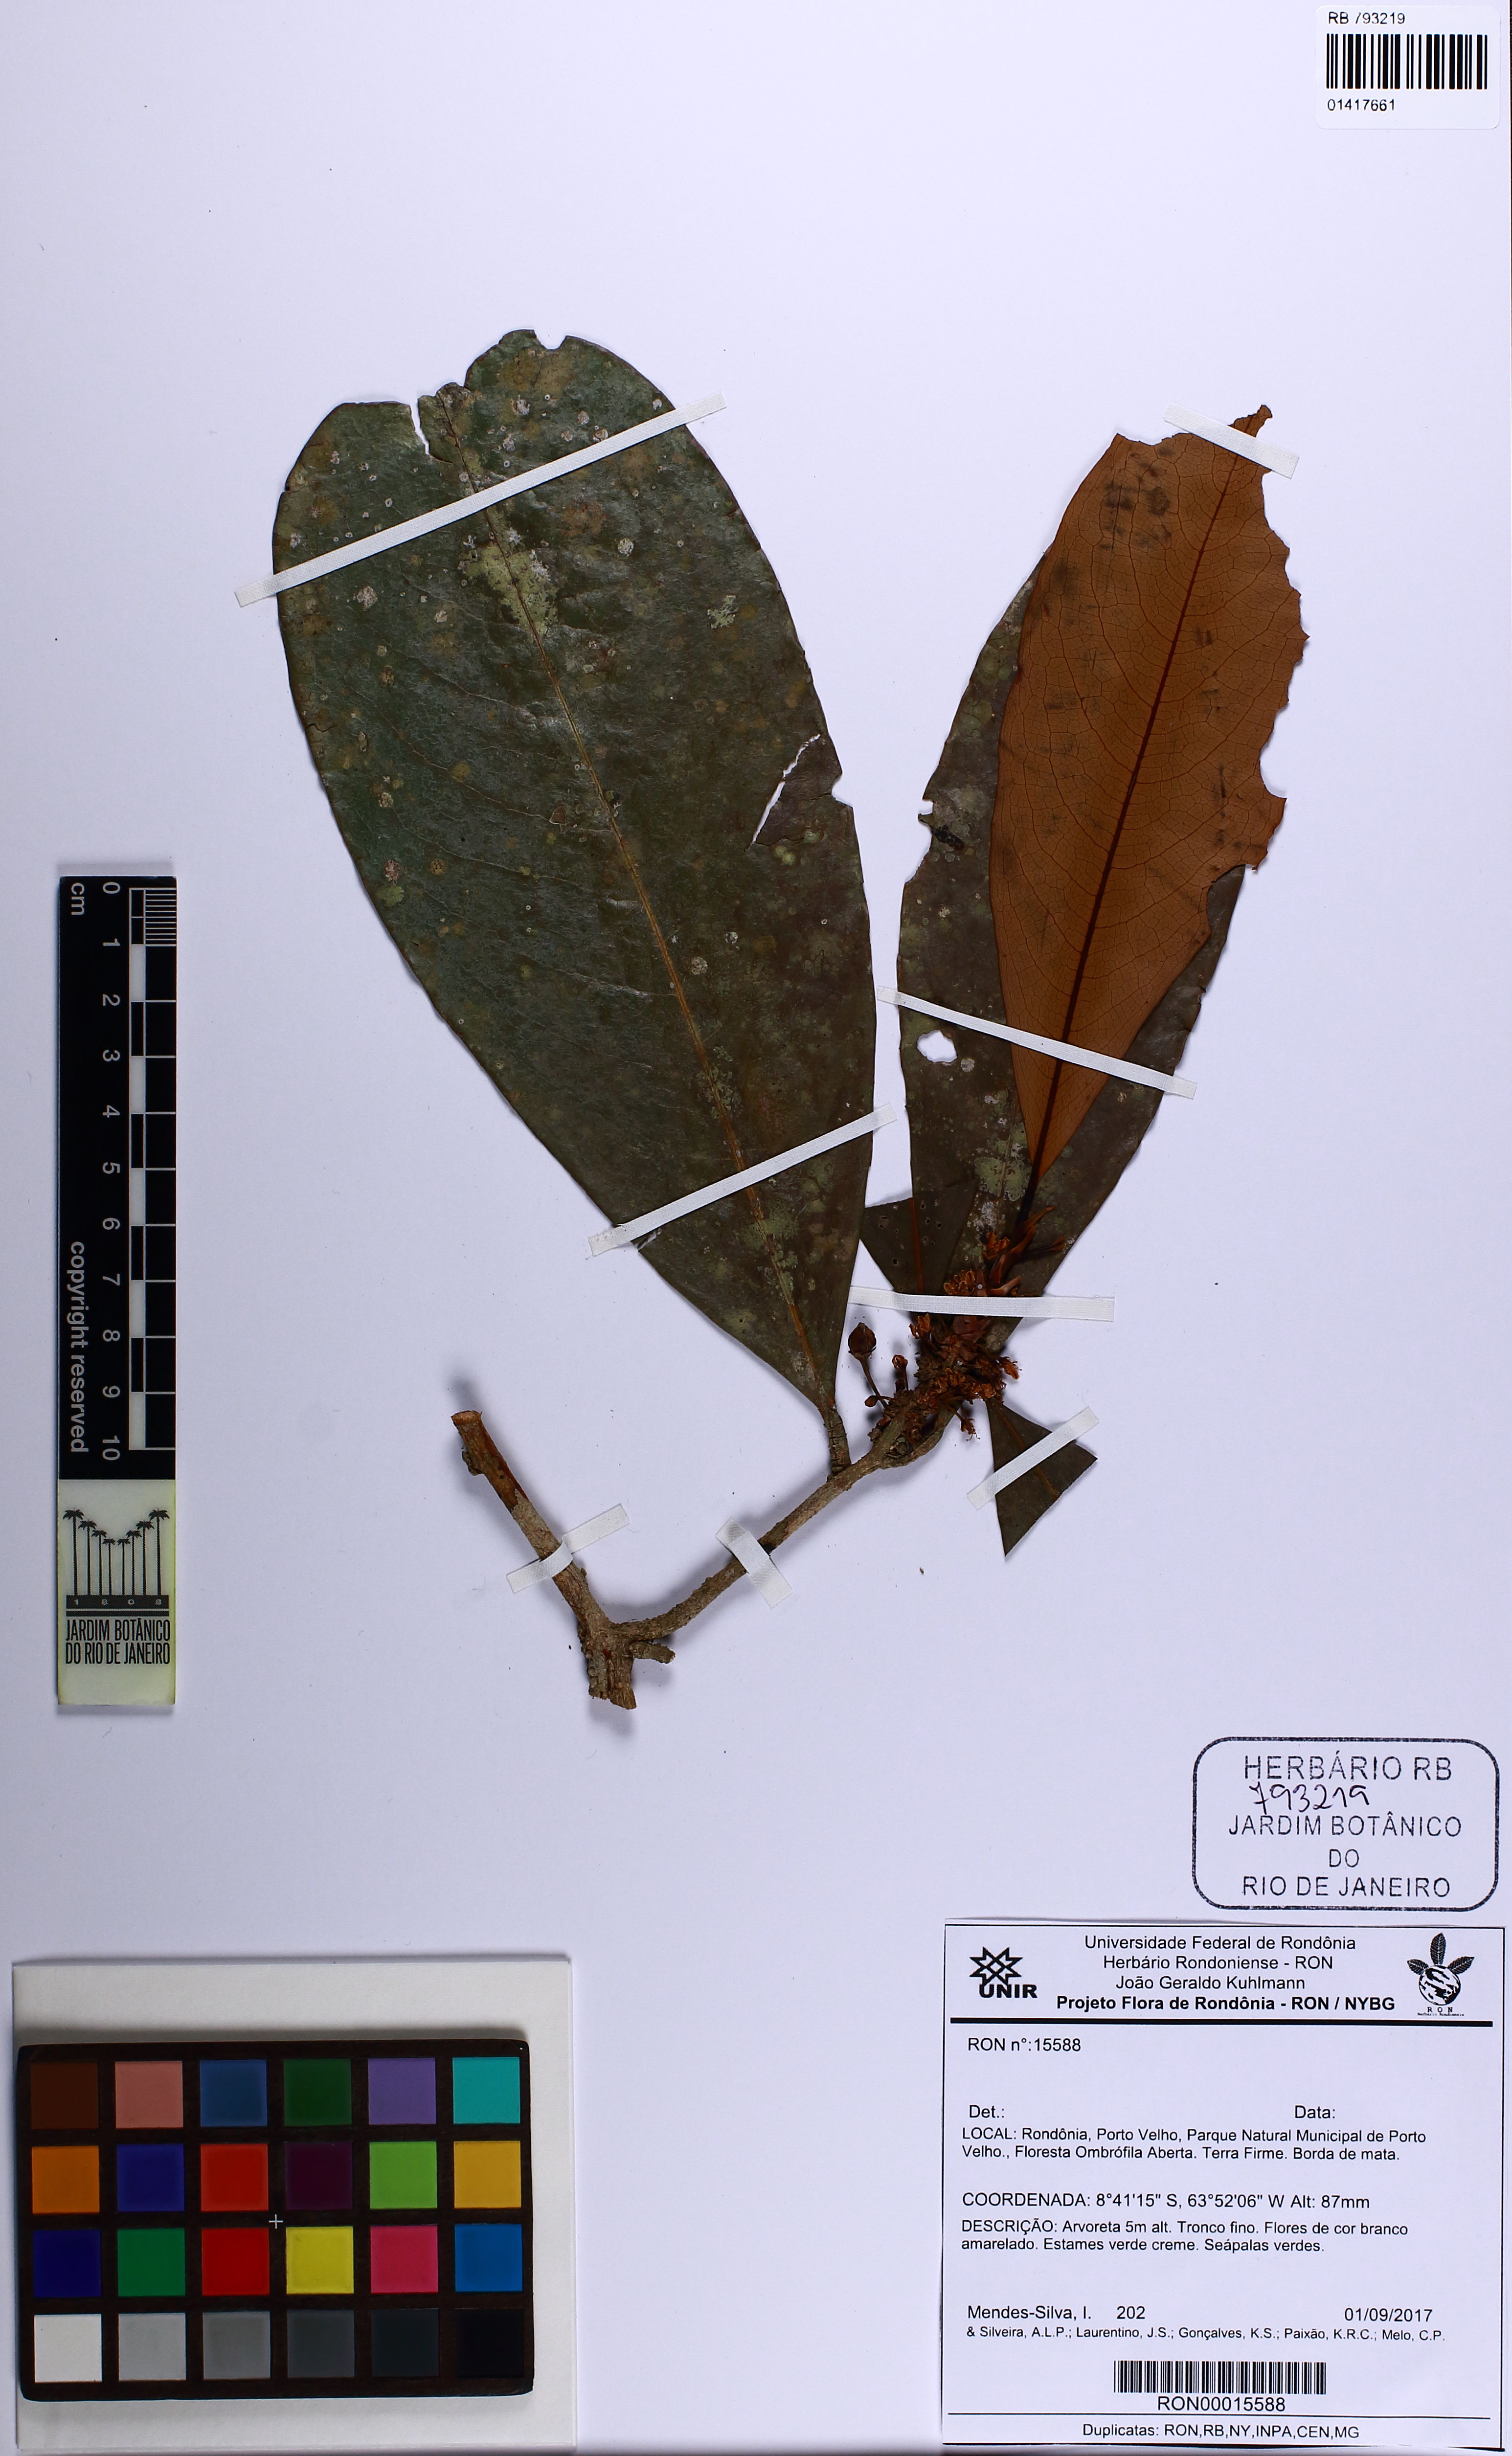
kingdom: Plantae
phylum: Tracheophyta
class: Magnoliopsida
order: Malpighiales
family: Erythroxylaceae
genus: Erythroxylum
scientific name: Erythroxylum macrocalyx
